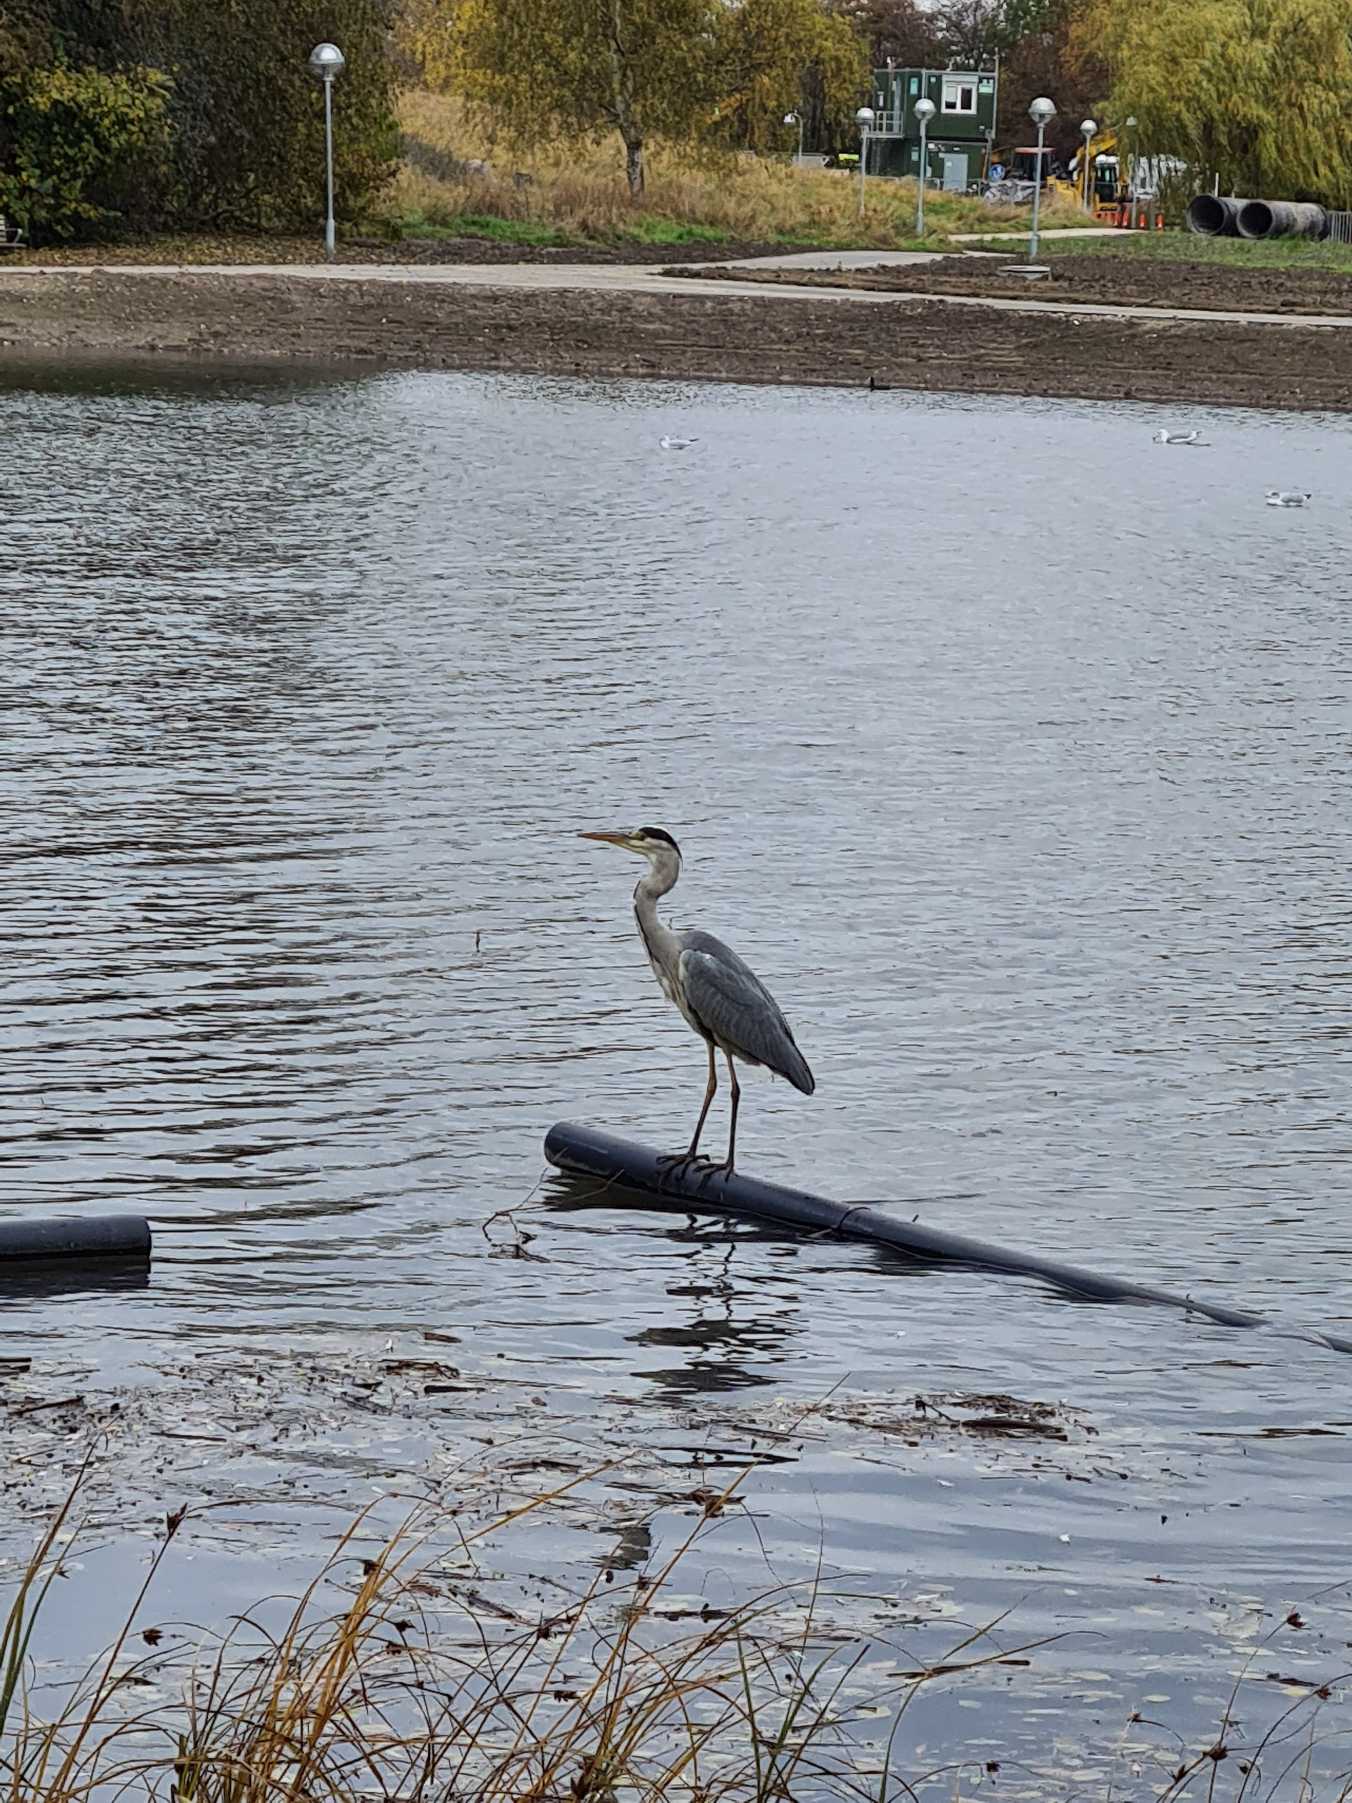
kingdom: Animalia
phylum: Chordata
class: Aves
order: Pelecaniformes
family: Ardeidae
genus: Ardea
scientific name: Ardea cinerea
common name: Fiskehejre
